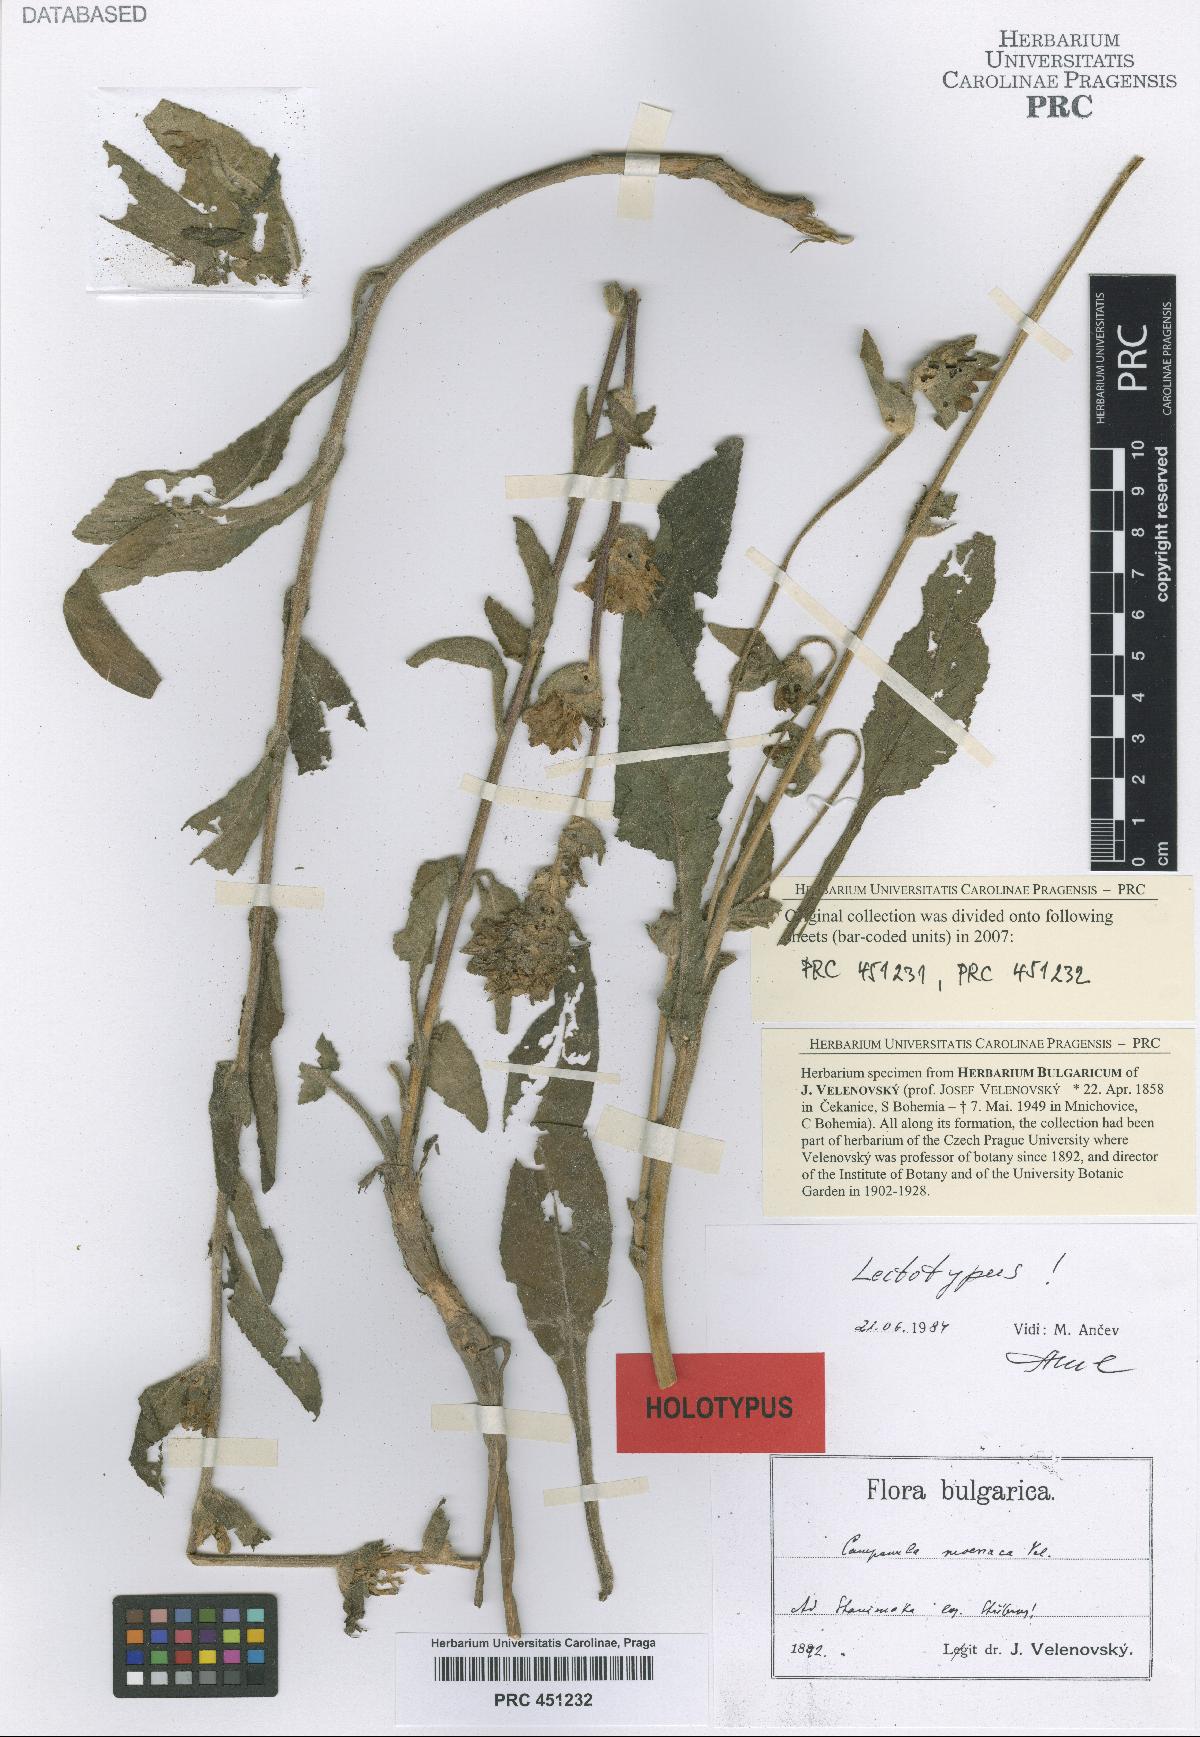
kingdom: Plantae
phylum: Tracheophyta
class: Magnoliopsida
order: Asterales
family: Campanulaceae
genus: Campanula
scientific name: Campanula moesiaca
